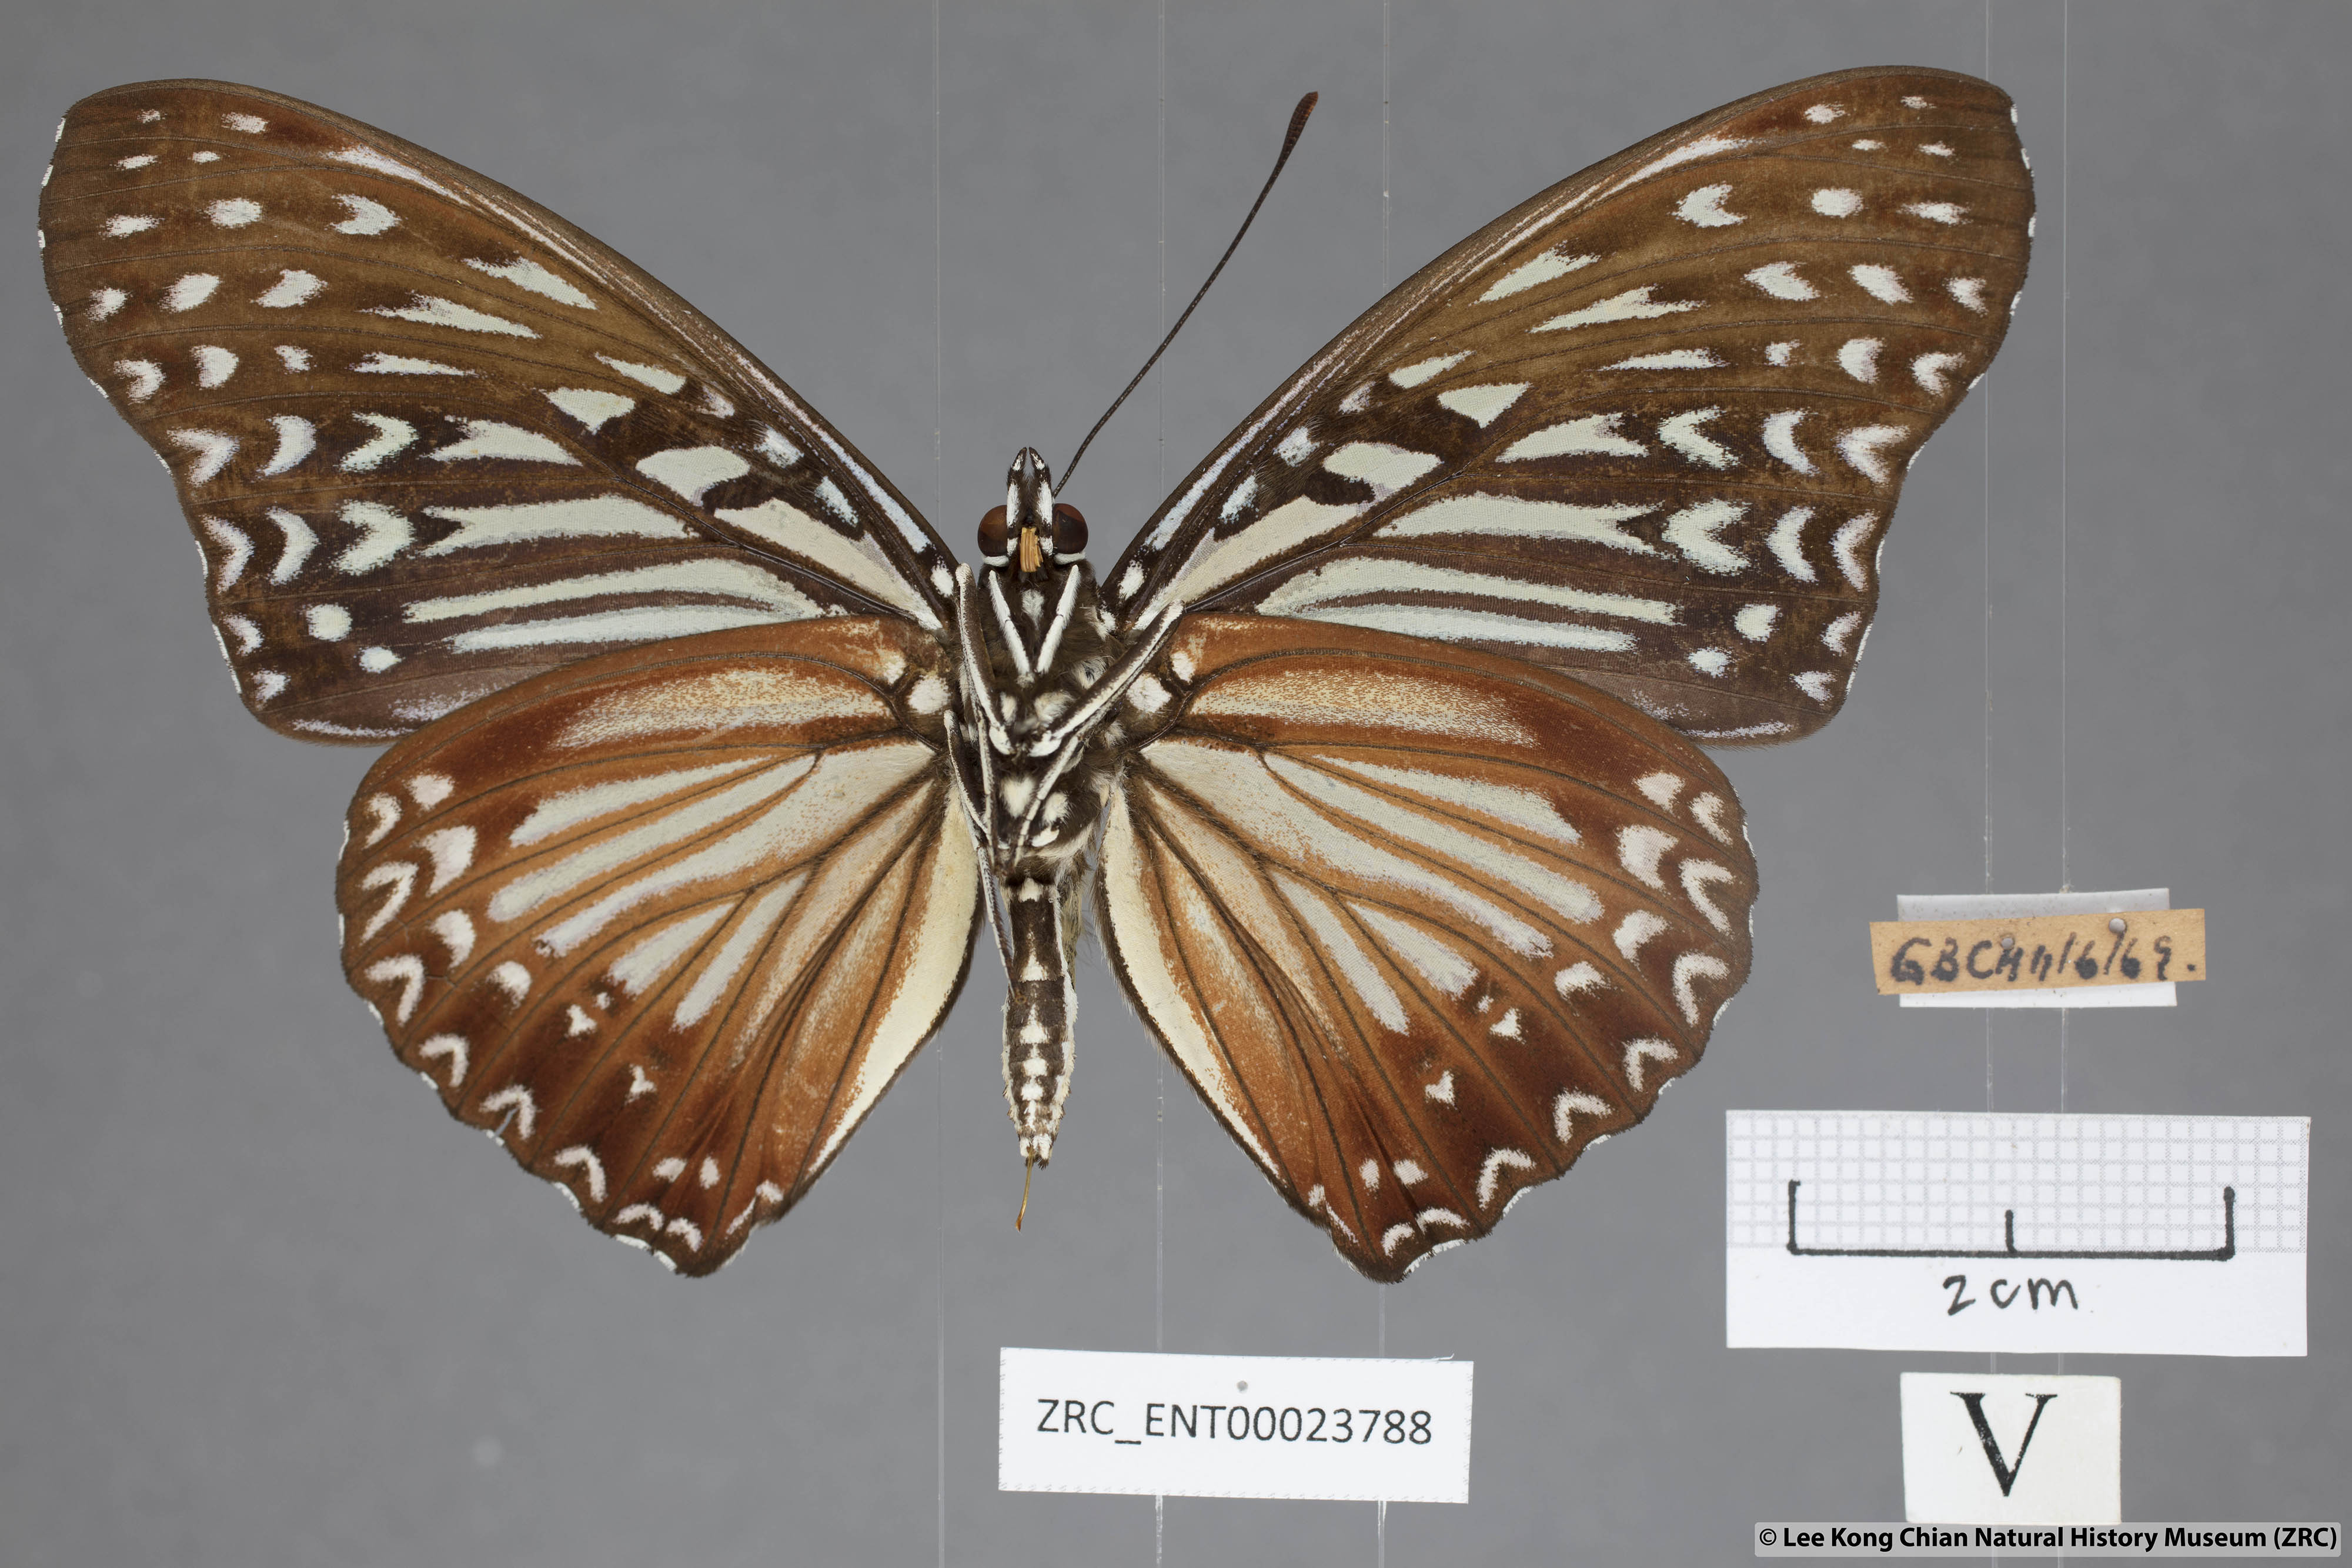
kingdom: Animalia
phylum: Arthropoda
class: Insecta
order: Lepidoptera
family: Nymphalidae
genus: Hestinalis
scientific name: Hestinalis nama
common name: Circe
